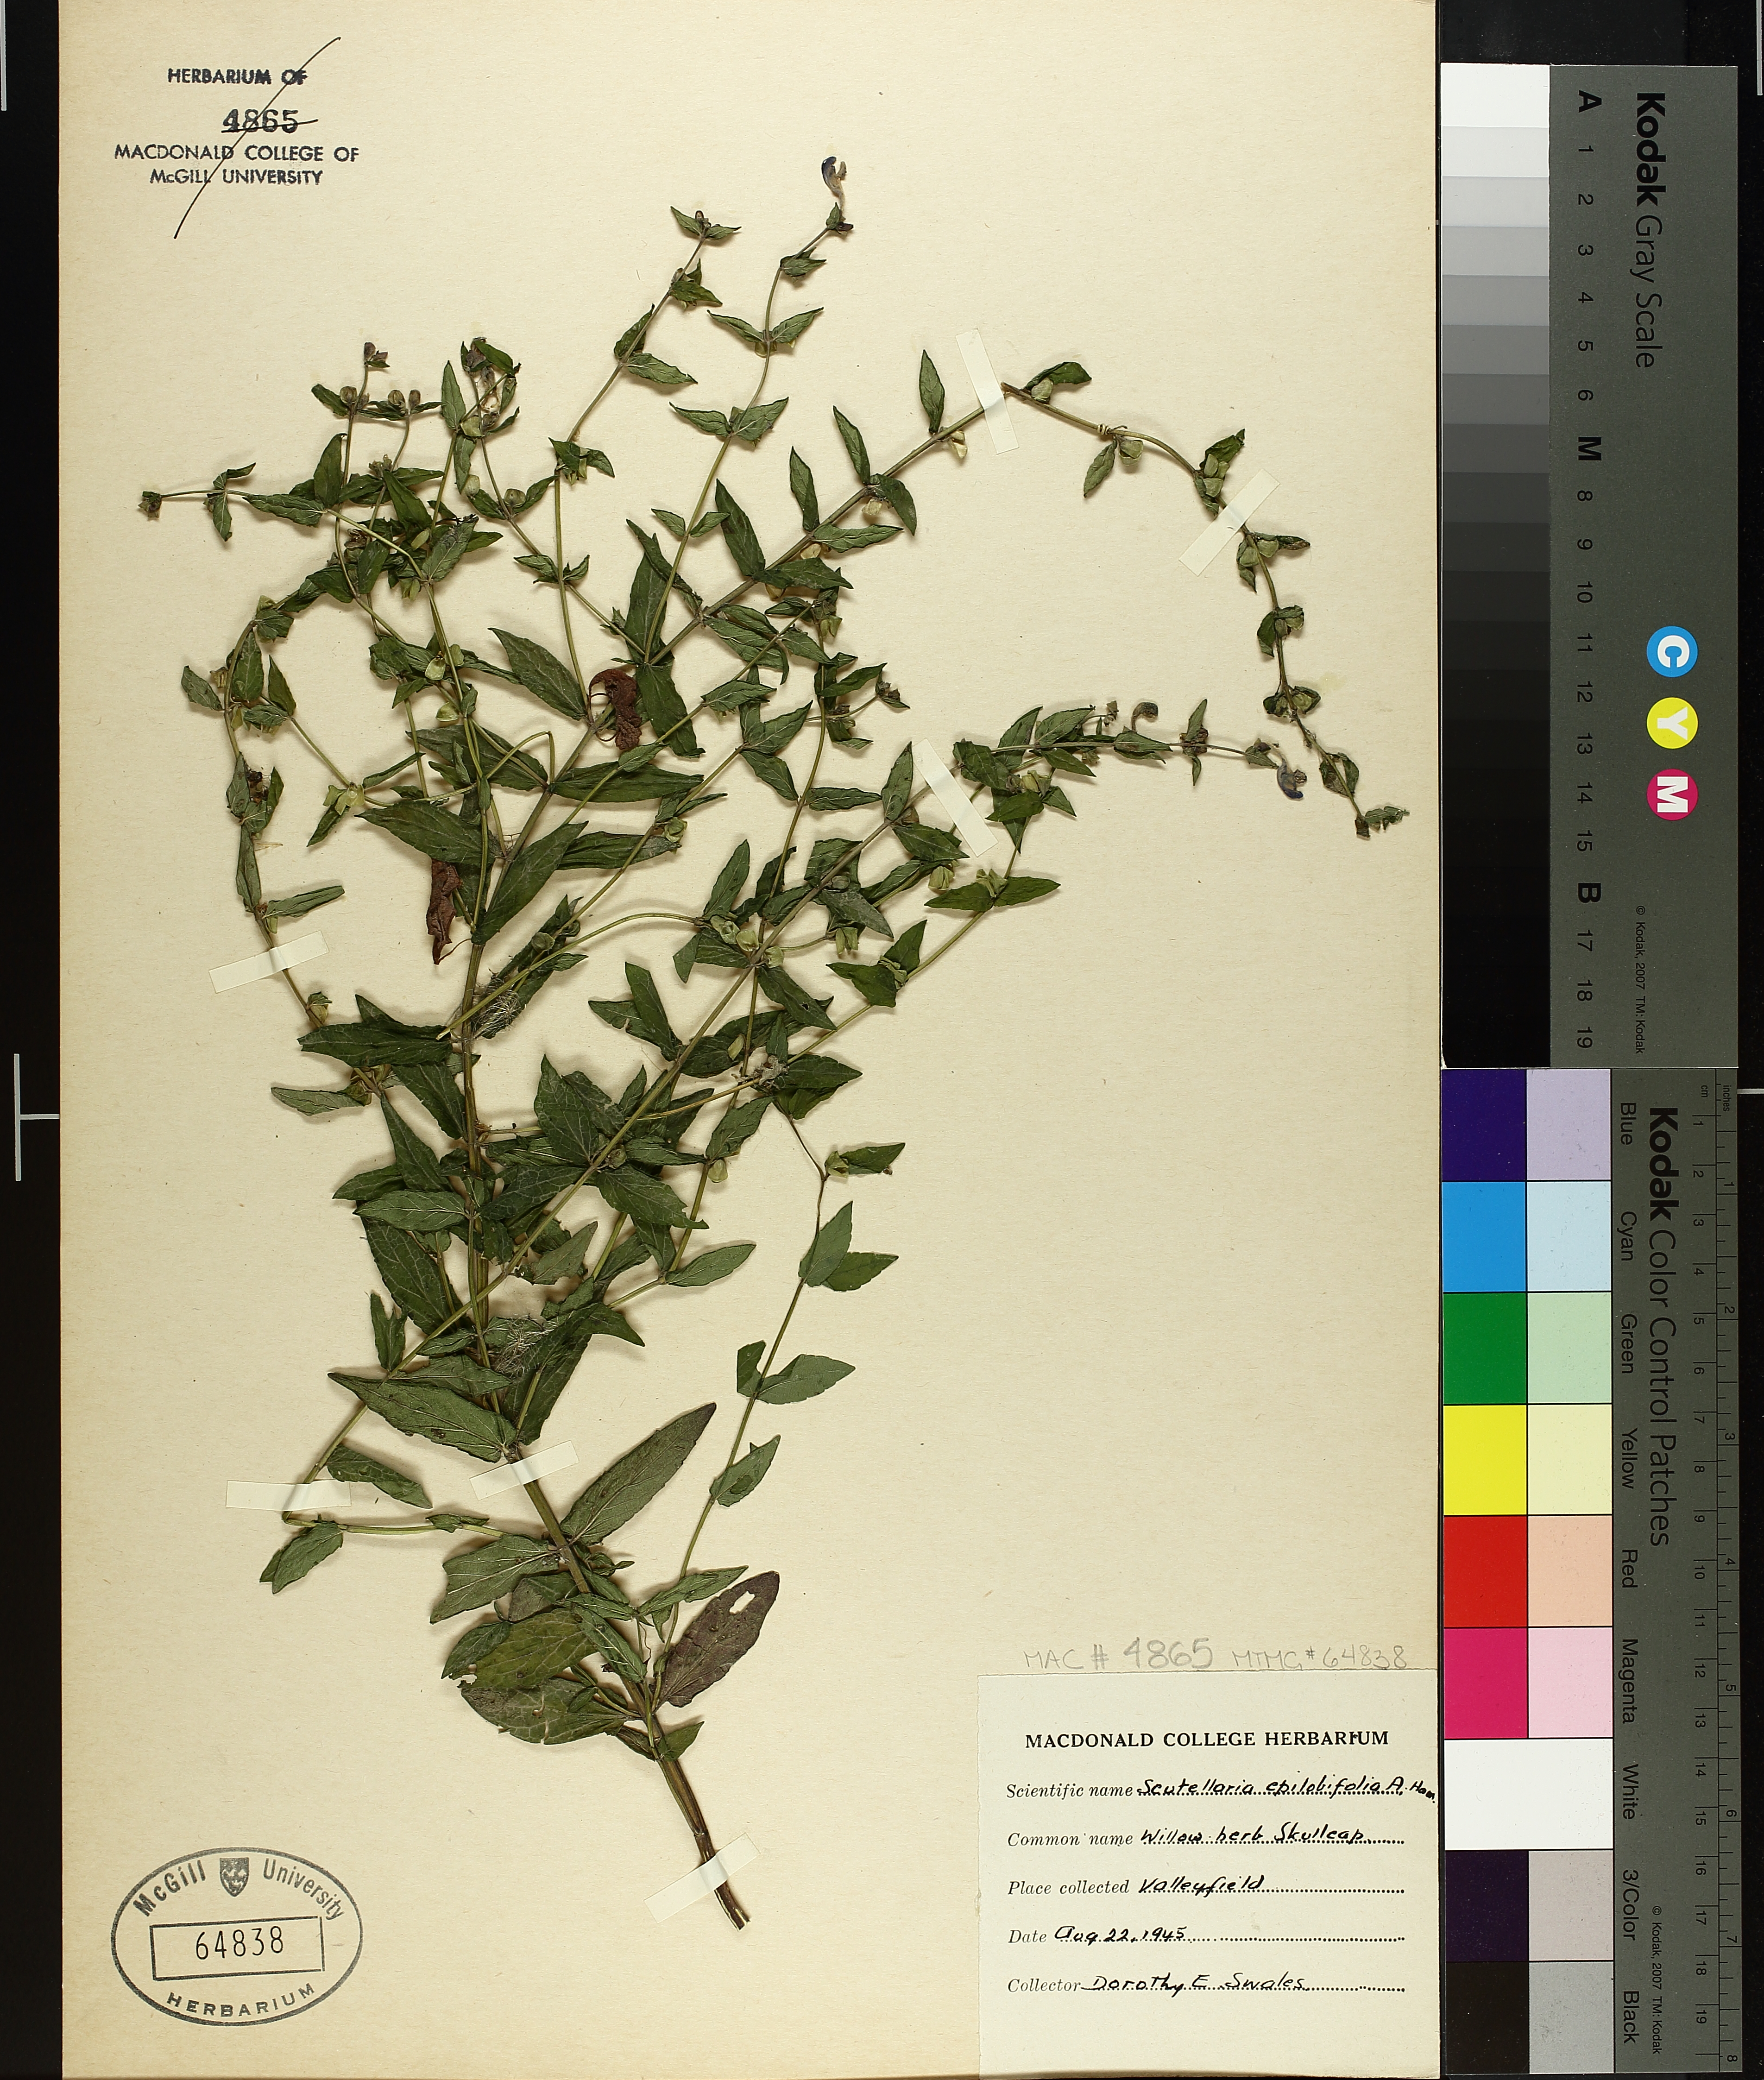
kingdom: Plantae
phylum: Tracheophyta
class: Magnoliopsida
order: Lamiales
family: Lamiaceae
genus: Scutellaria
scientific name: Scutellaria galericulata
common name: Skullcap
